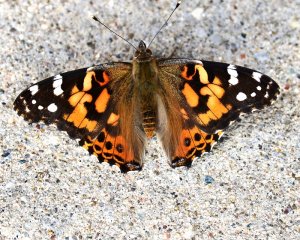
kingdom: Animalia
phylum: Arthropoda
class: Insecta
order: Lepidoptera
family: Nymphalidae
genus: Vanessa
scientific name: Vanessa cardui
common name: Painted Lady
